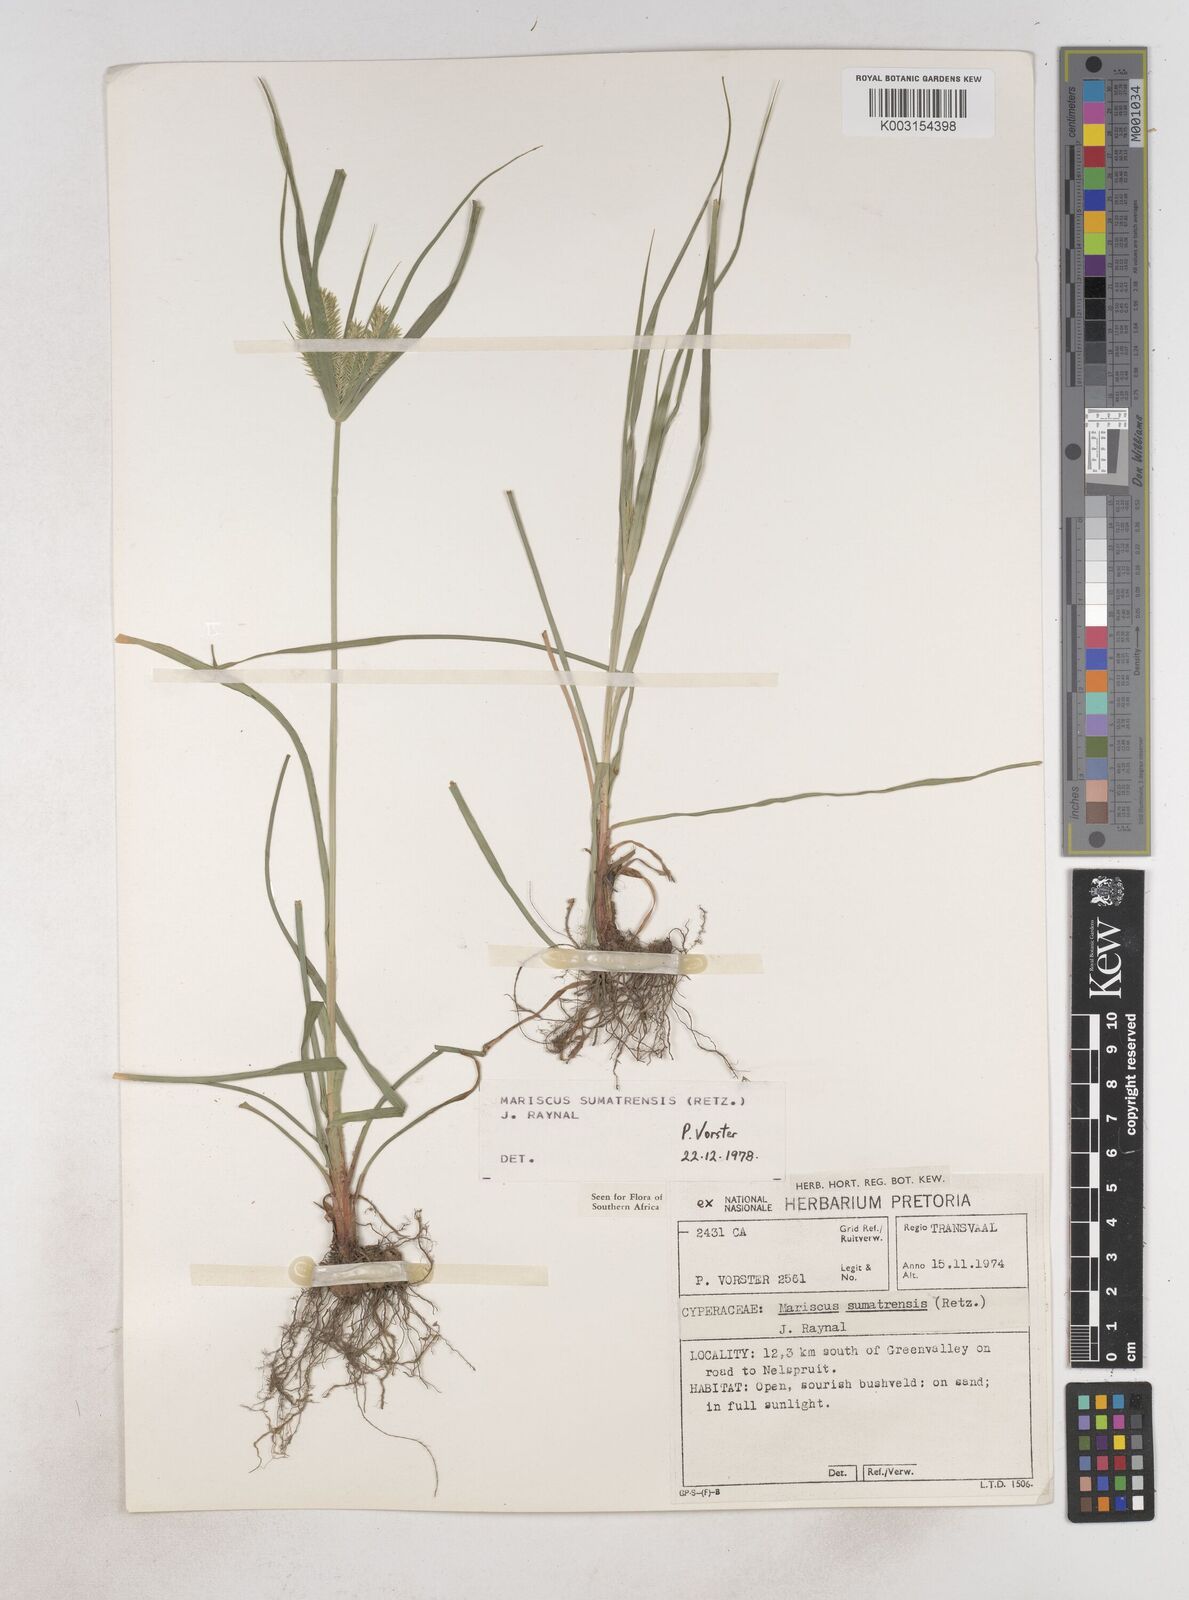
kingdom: Plantae
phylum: Tracheophyta
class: Liliopsida
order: Poales
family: Cyperaceae
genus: Cyperus
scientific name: Cyperus cyperoides
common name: Pacific island flat sedge
